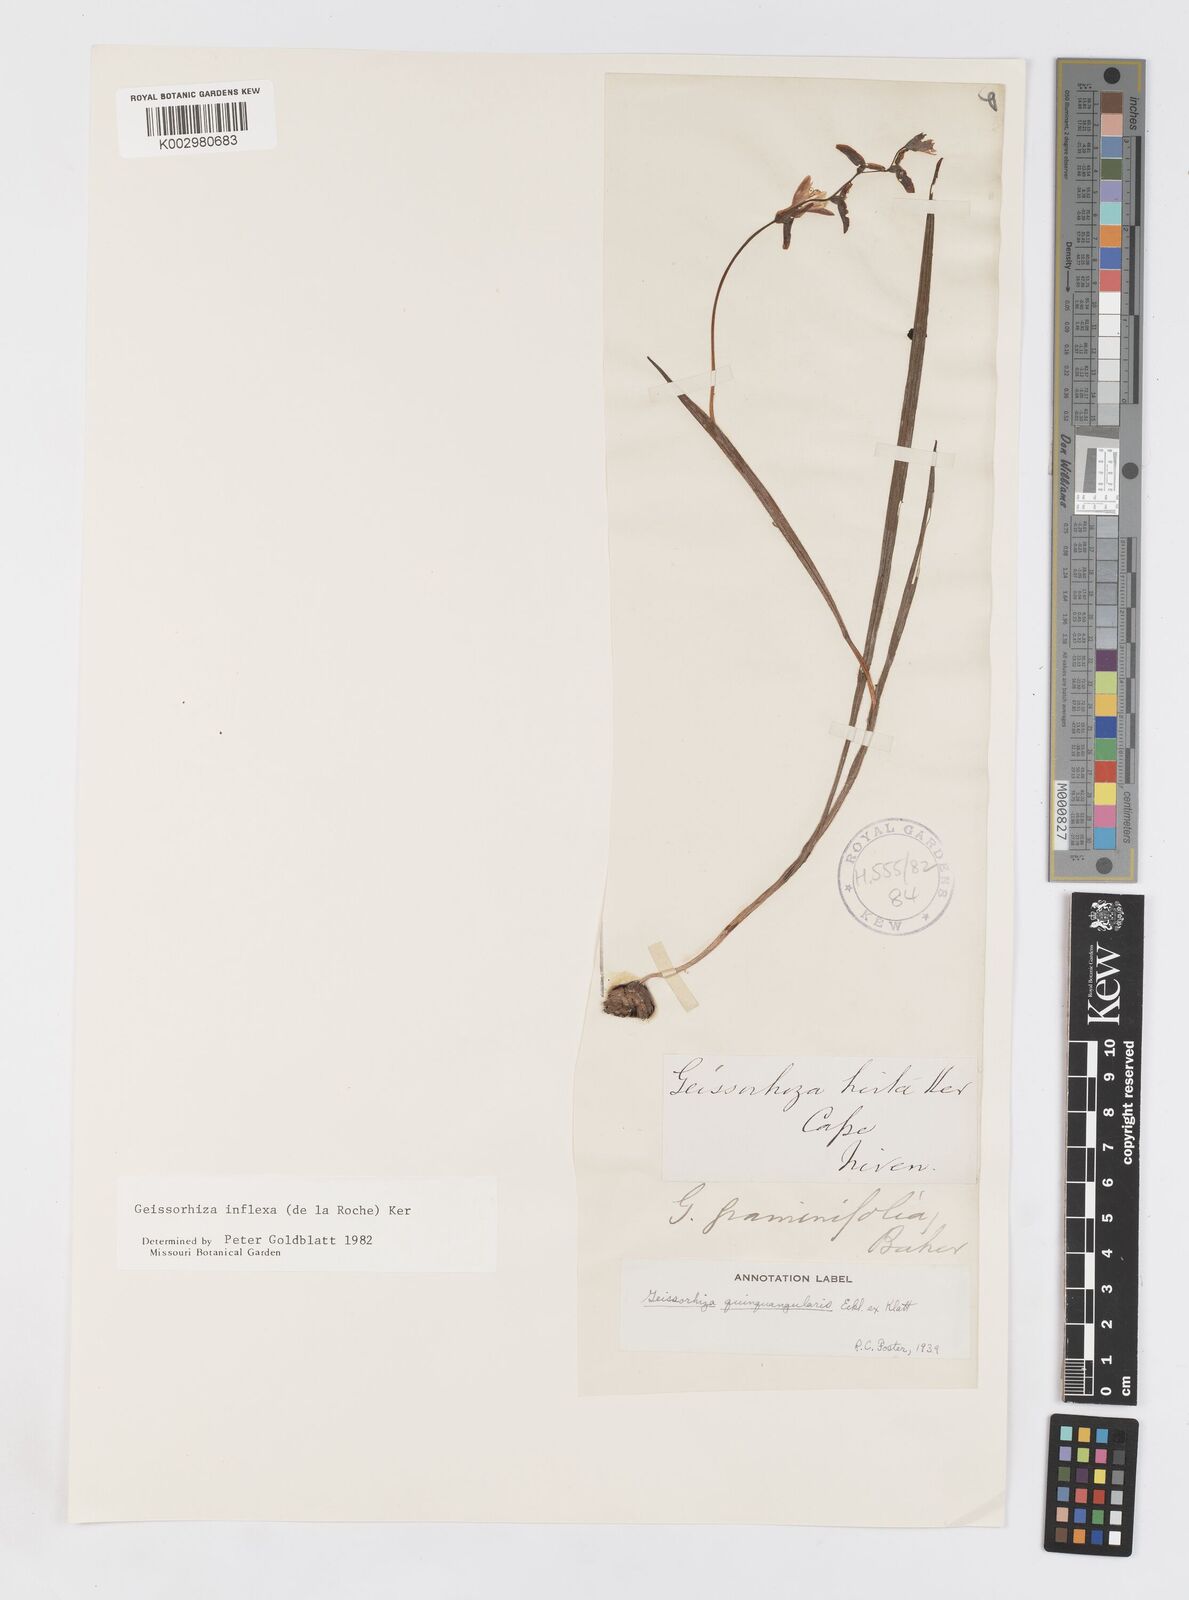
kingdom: Plantae
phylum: Tracheophyta
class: Liliopsida
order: Asparagales
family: Iridaceae
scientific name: Iridaceae
